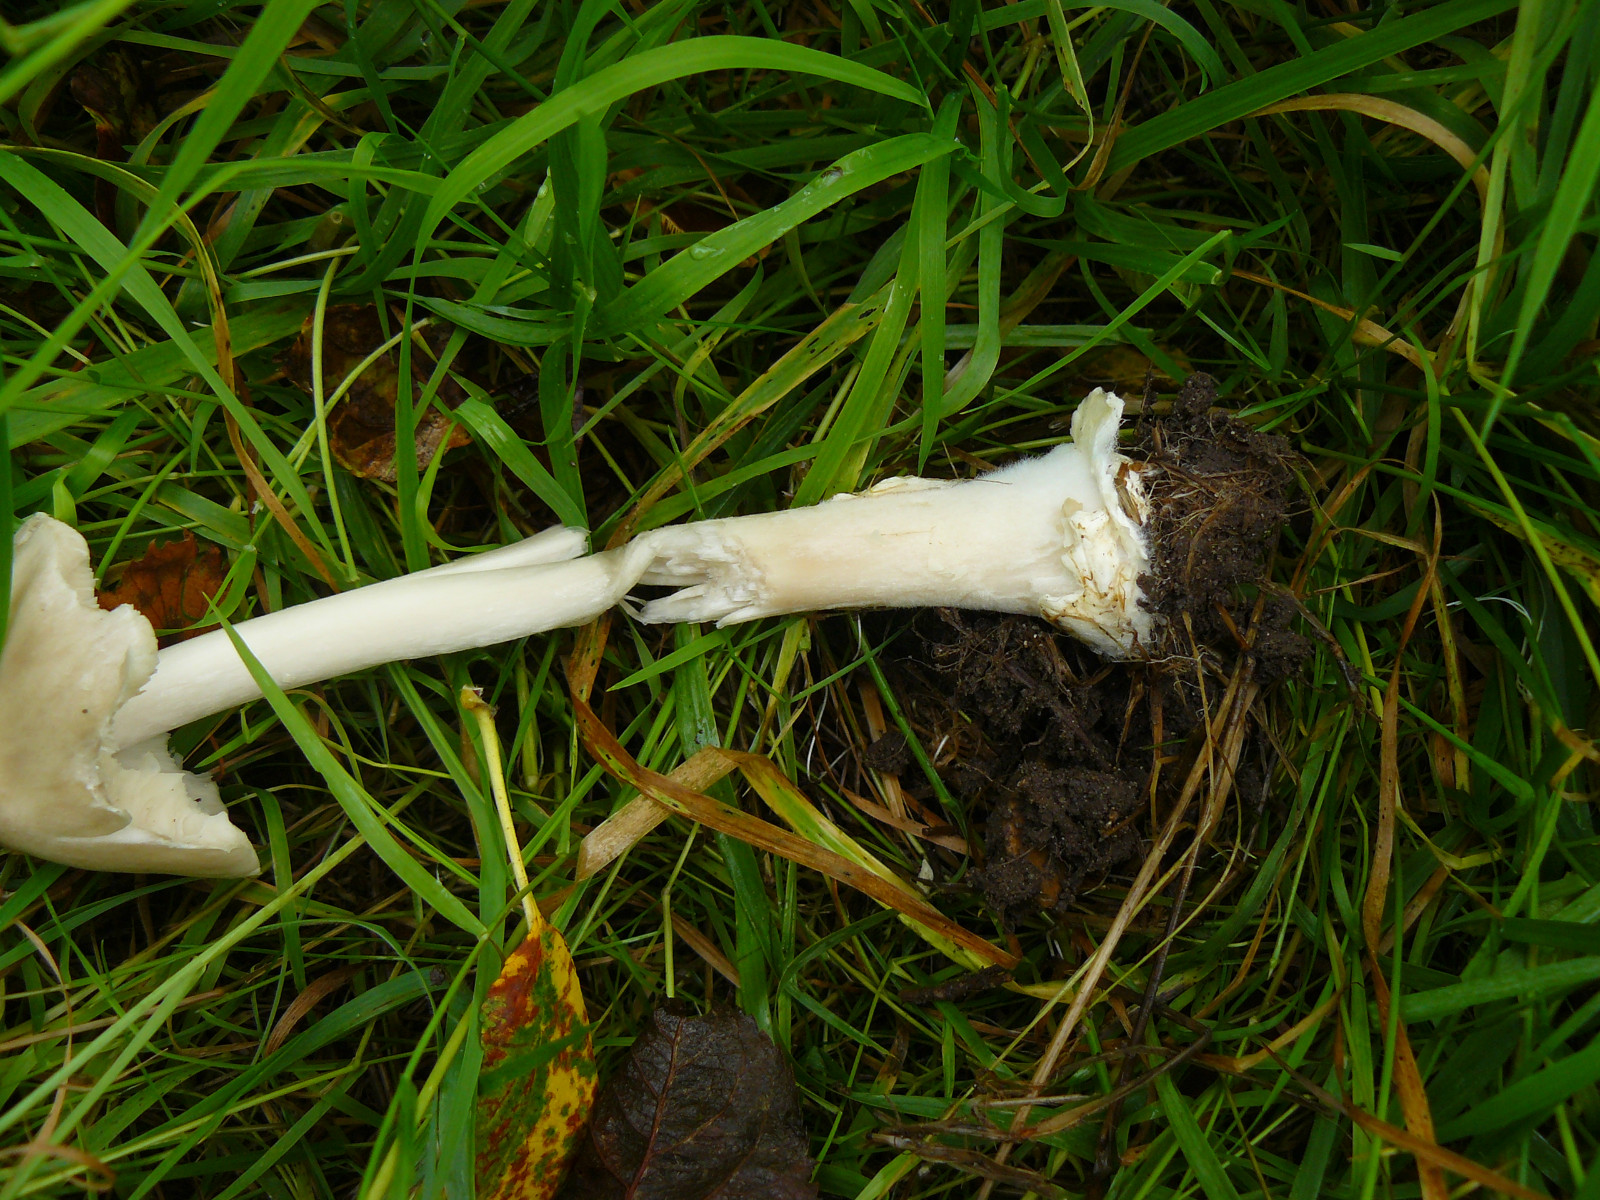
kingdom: Fungi
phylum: Basidiomycota
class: Agaricomycetes
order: Agaricales
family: Pluteaceae
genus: Volvopluteus
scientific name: Volvopluteus gloiocephalus
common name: høj posesvamp
